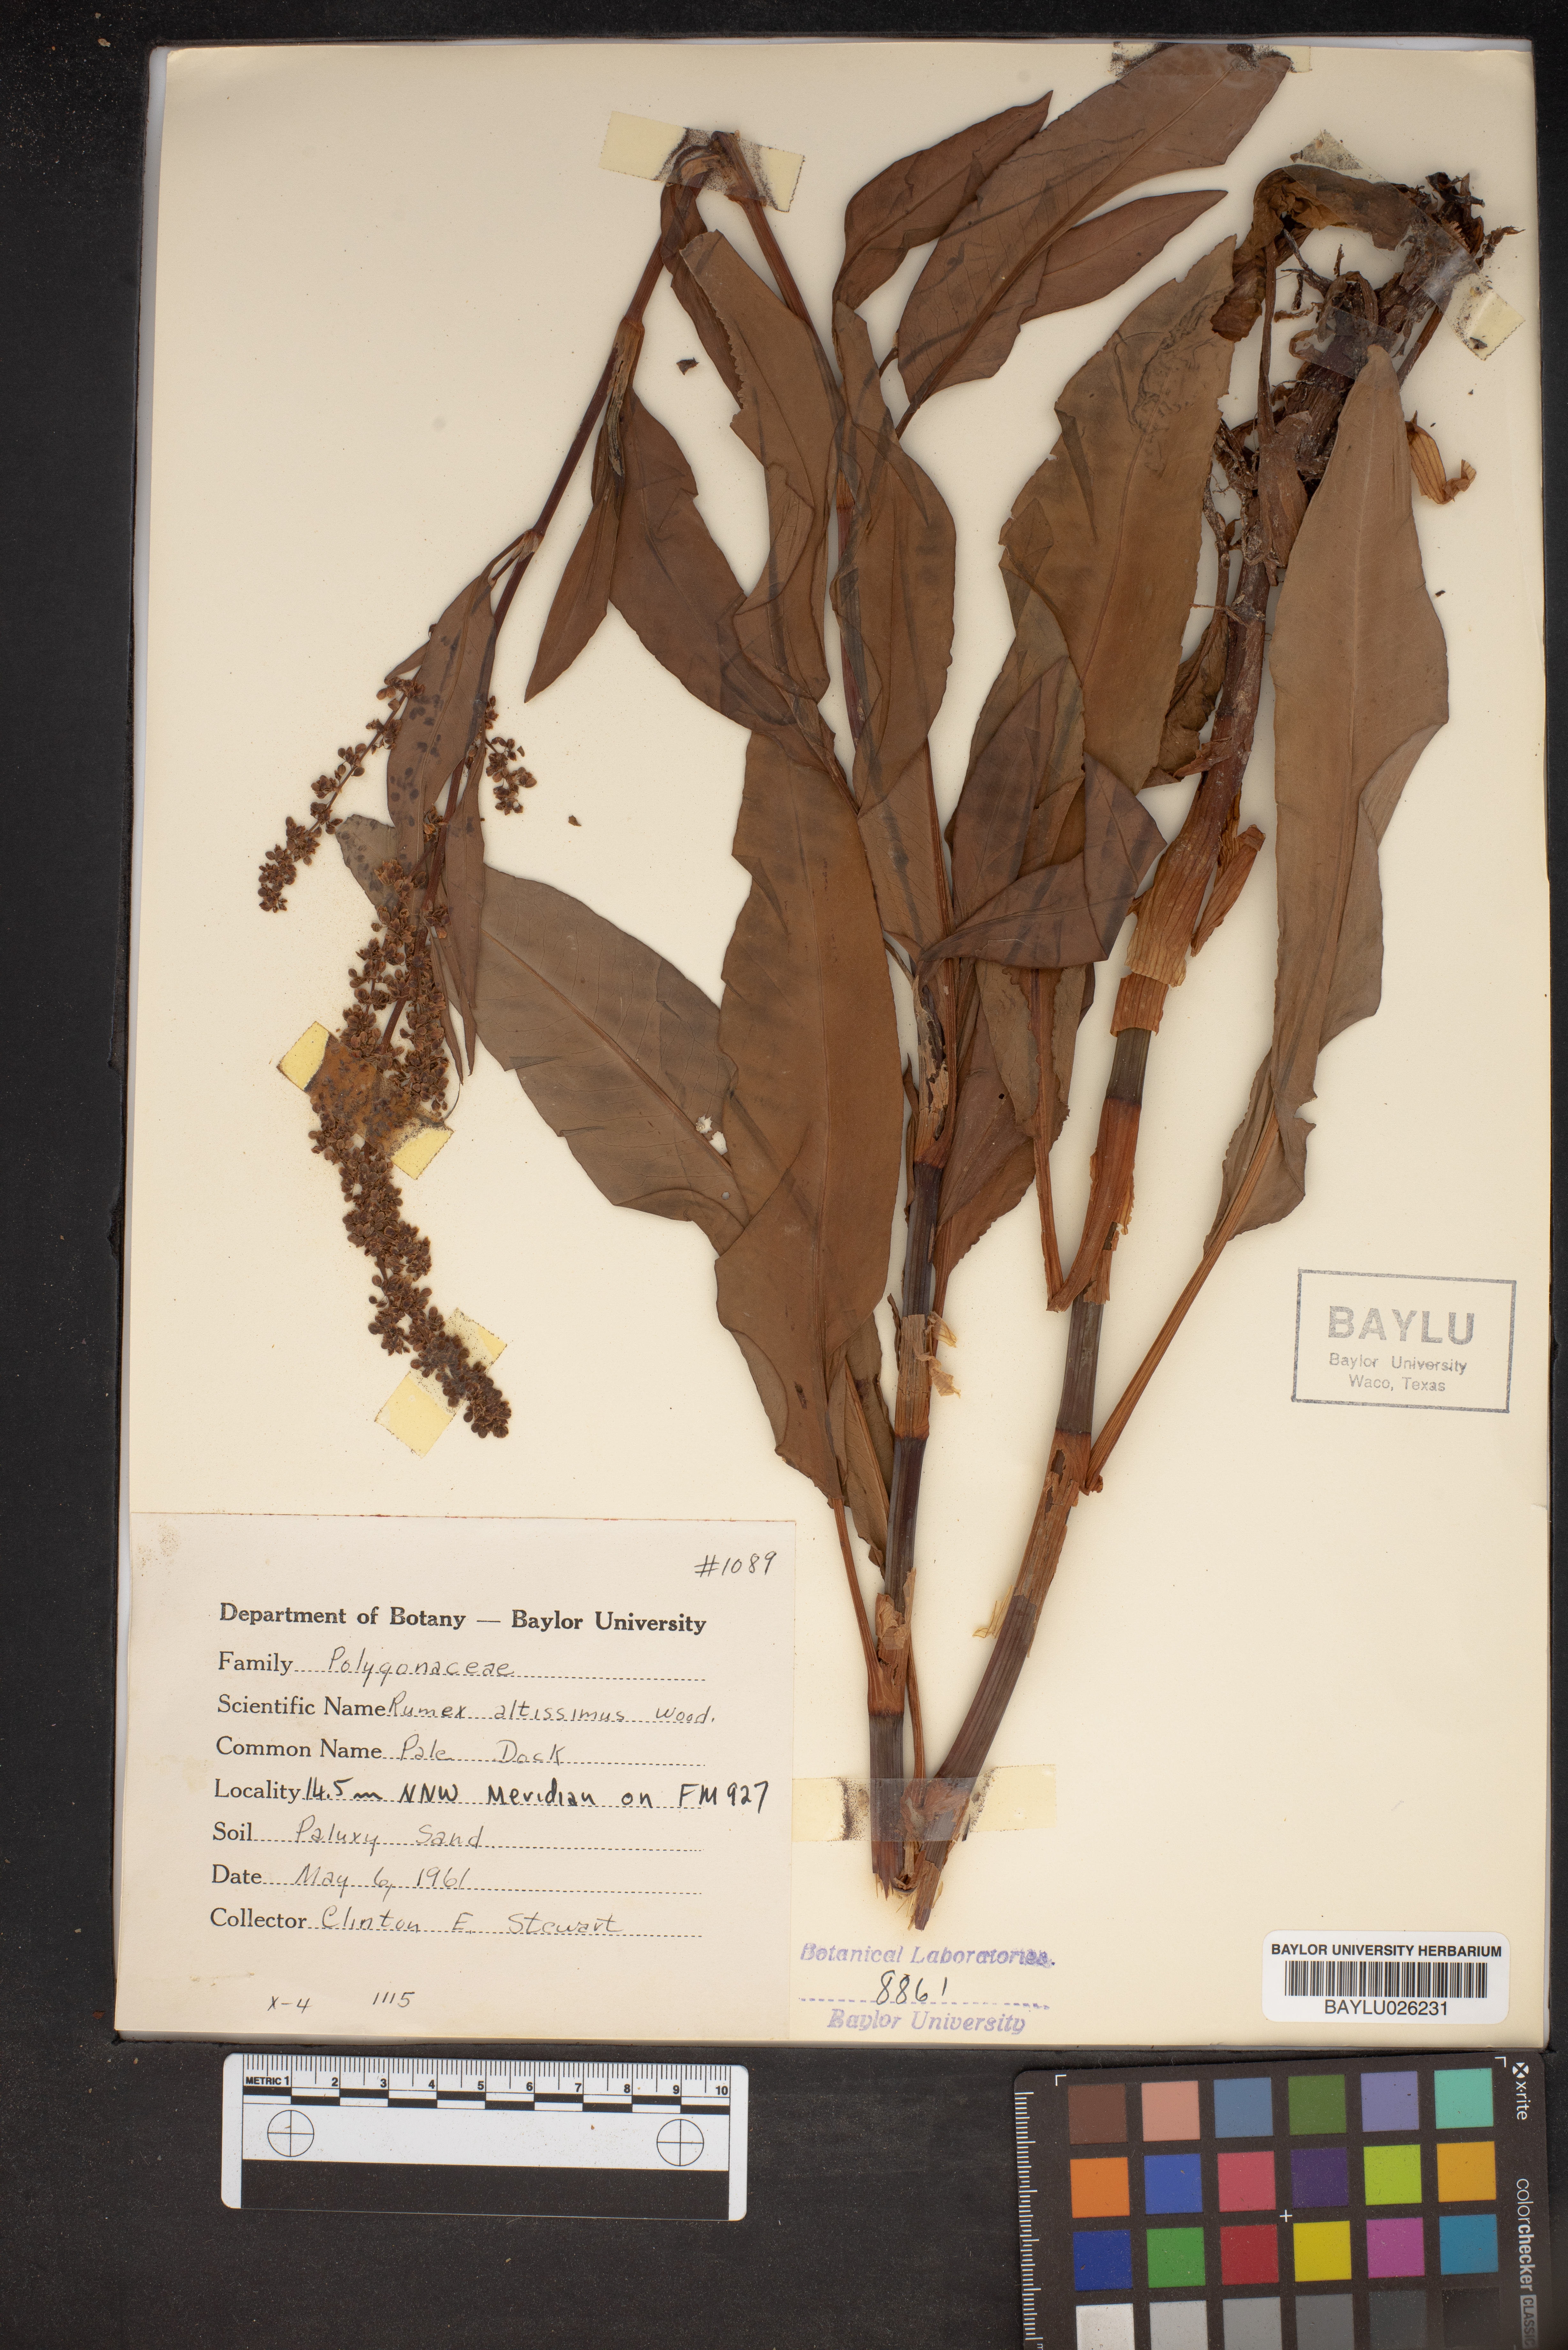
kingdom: Plantae
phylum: Tracheophyta
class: Magnoliopsida
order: Caryophyllales
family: Polygonaceae
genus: Rumex
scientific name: Rumex altissimus
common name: Smooth dock
